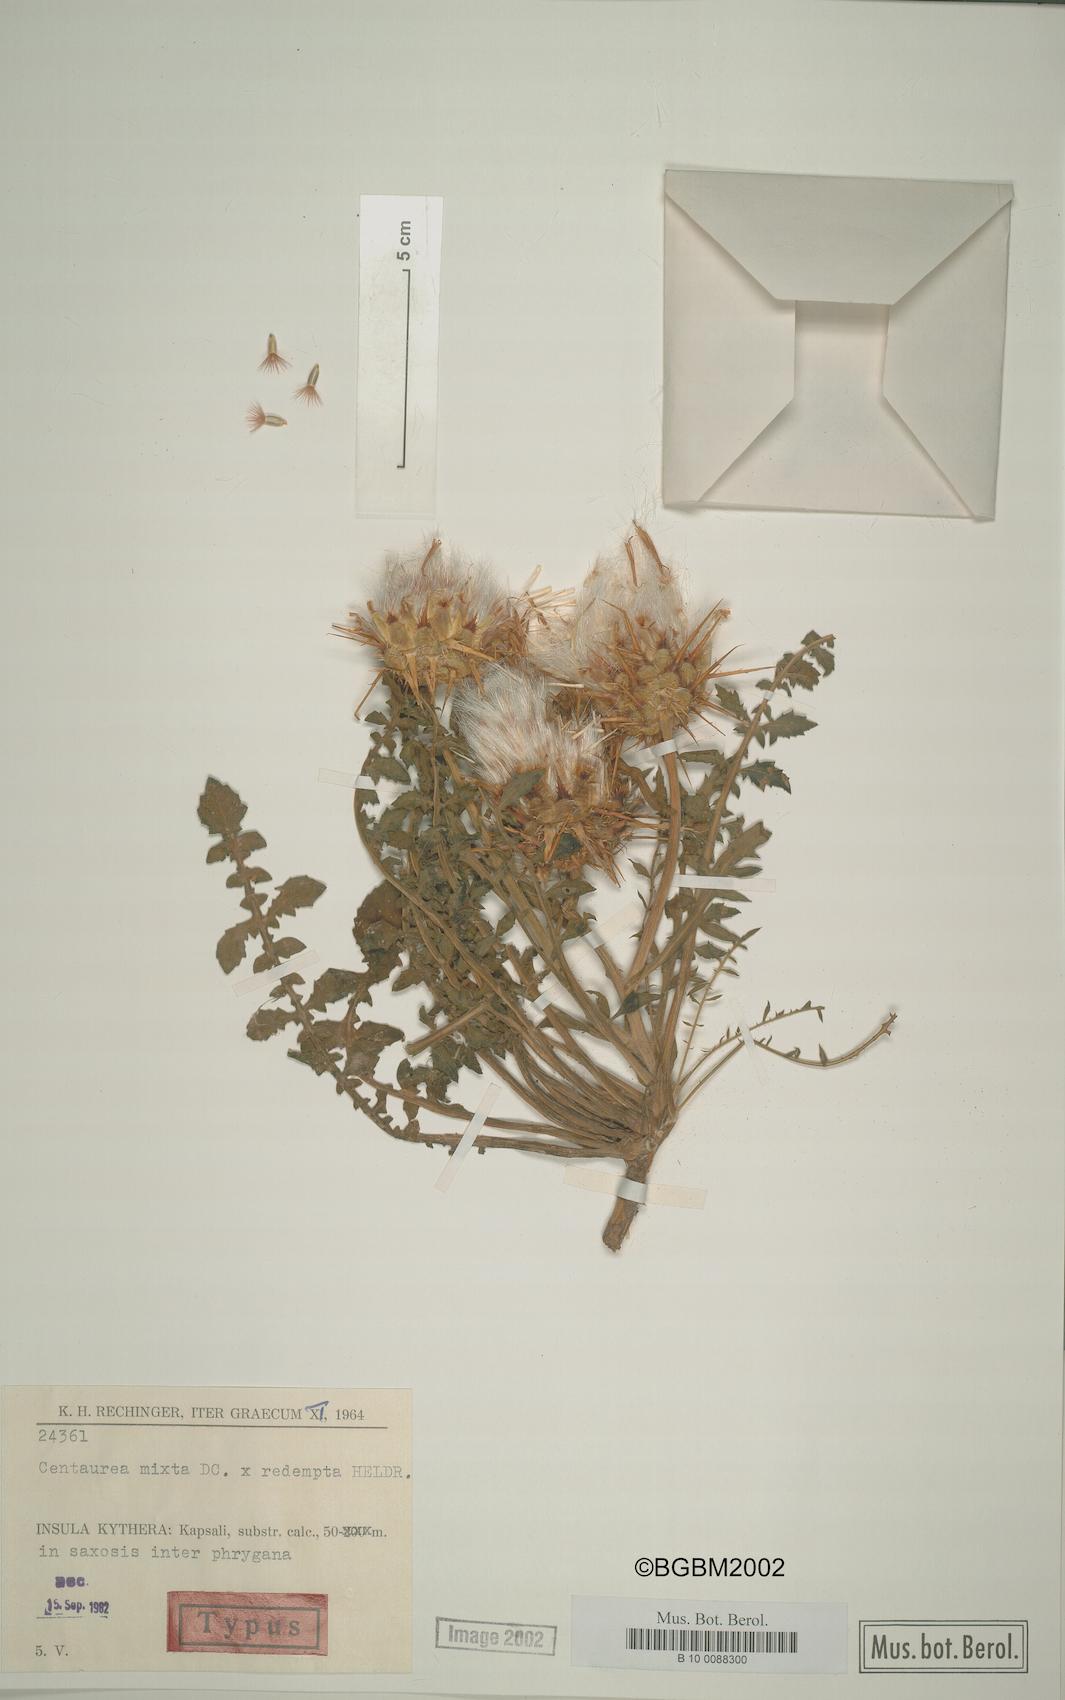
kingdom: Plantae
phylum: Tracheophyta
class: Magnoliopsida
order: Asterales
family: Asteraceae
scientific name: Asteraceae
